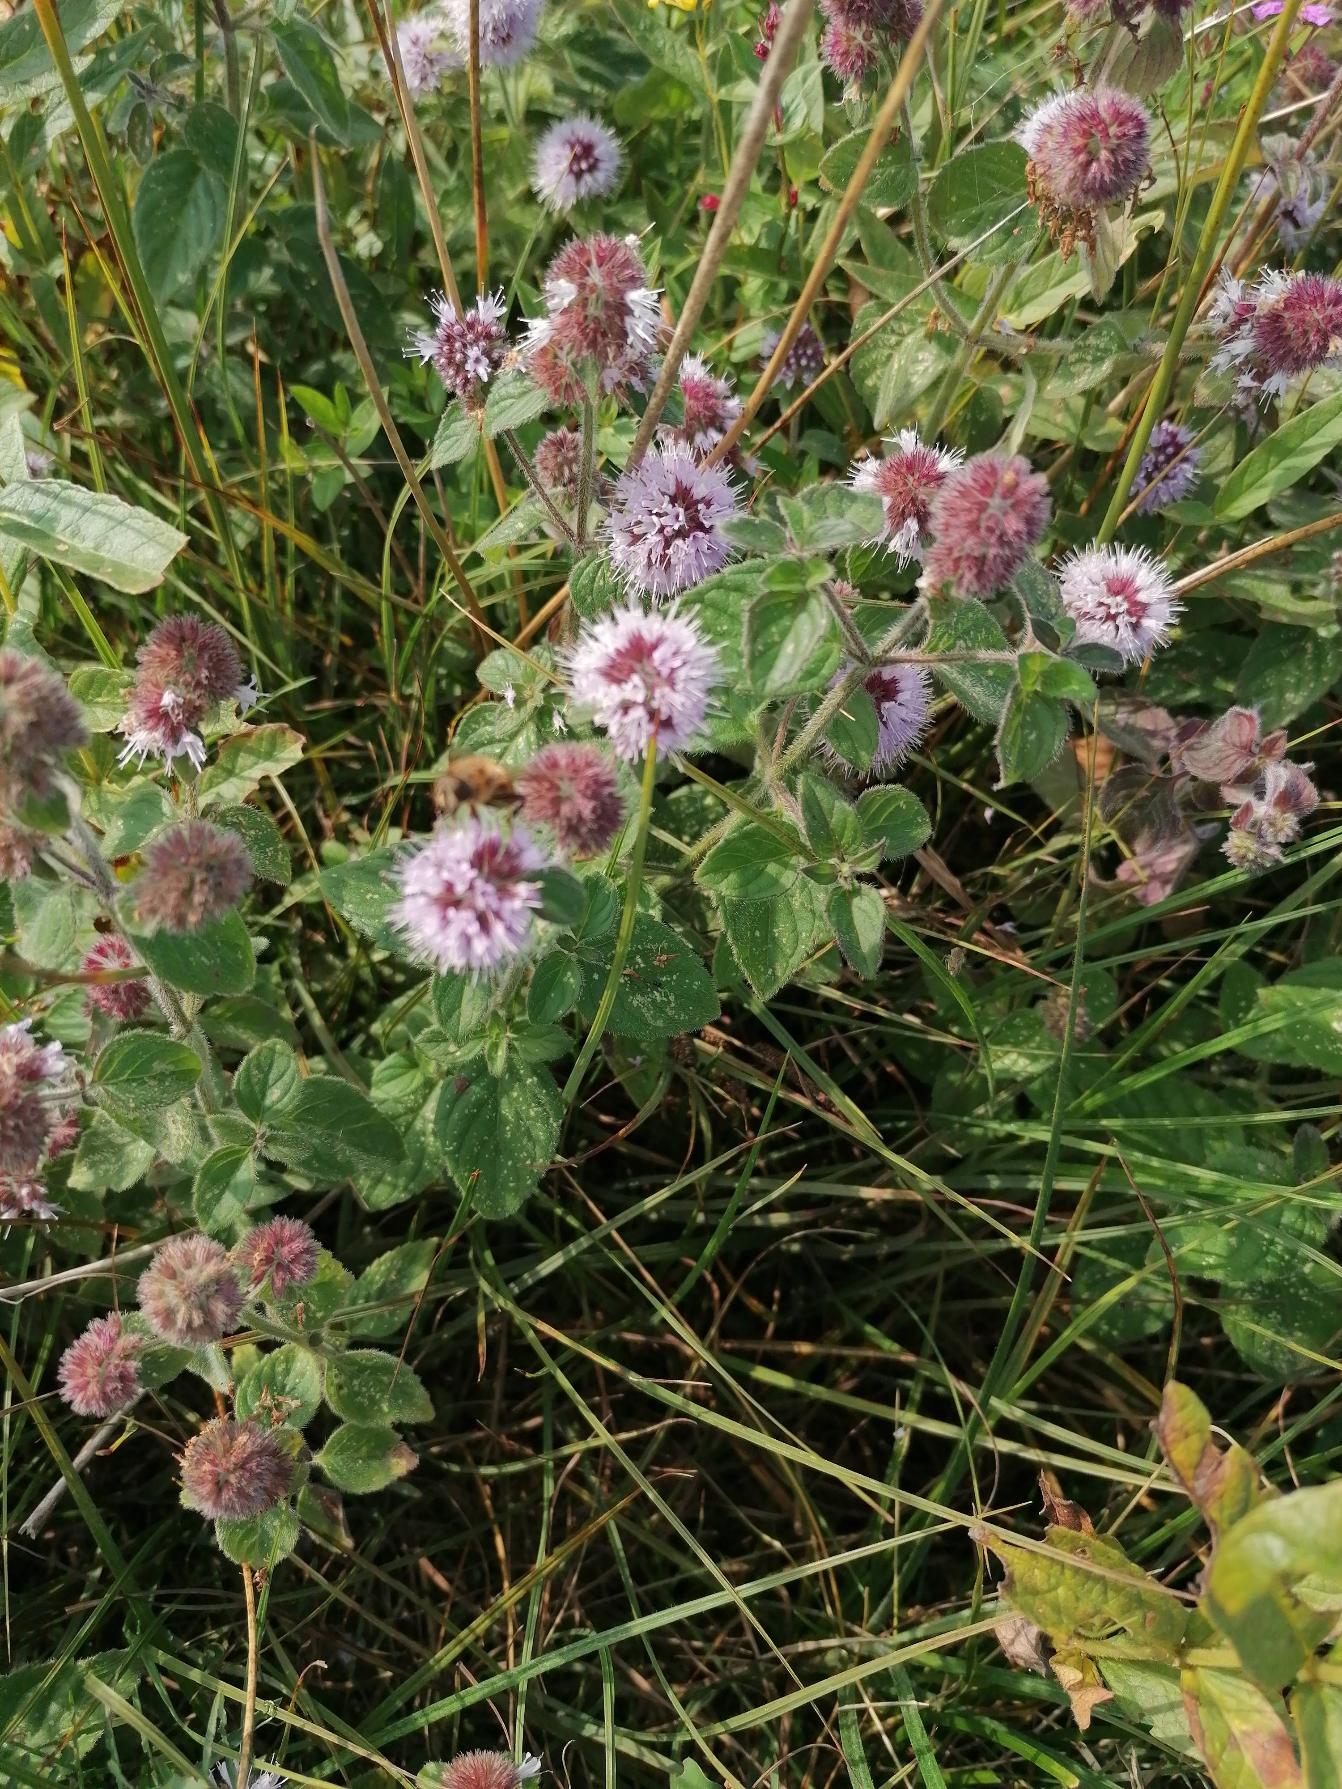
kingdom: Plantae
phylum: Tracheophyta
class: Magnoliopsida
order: Lamiales
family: Lamiaceae
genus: Mentha
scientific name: Mentha aquatica
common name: Vand-mynte
